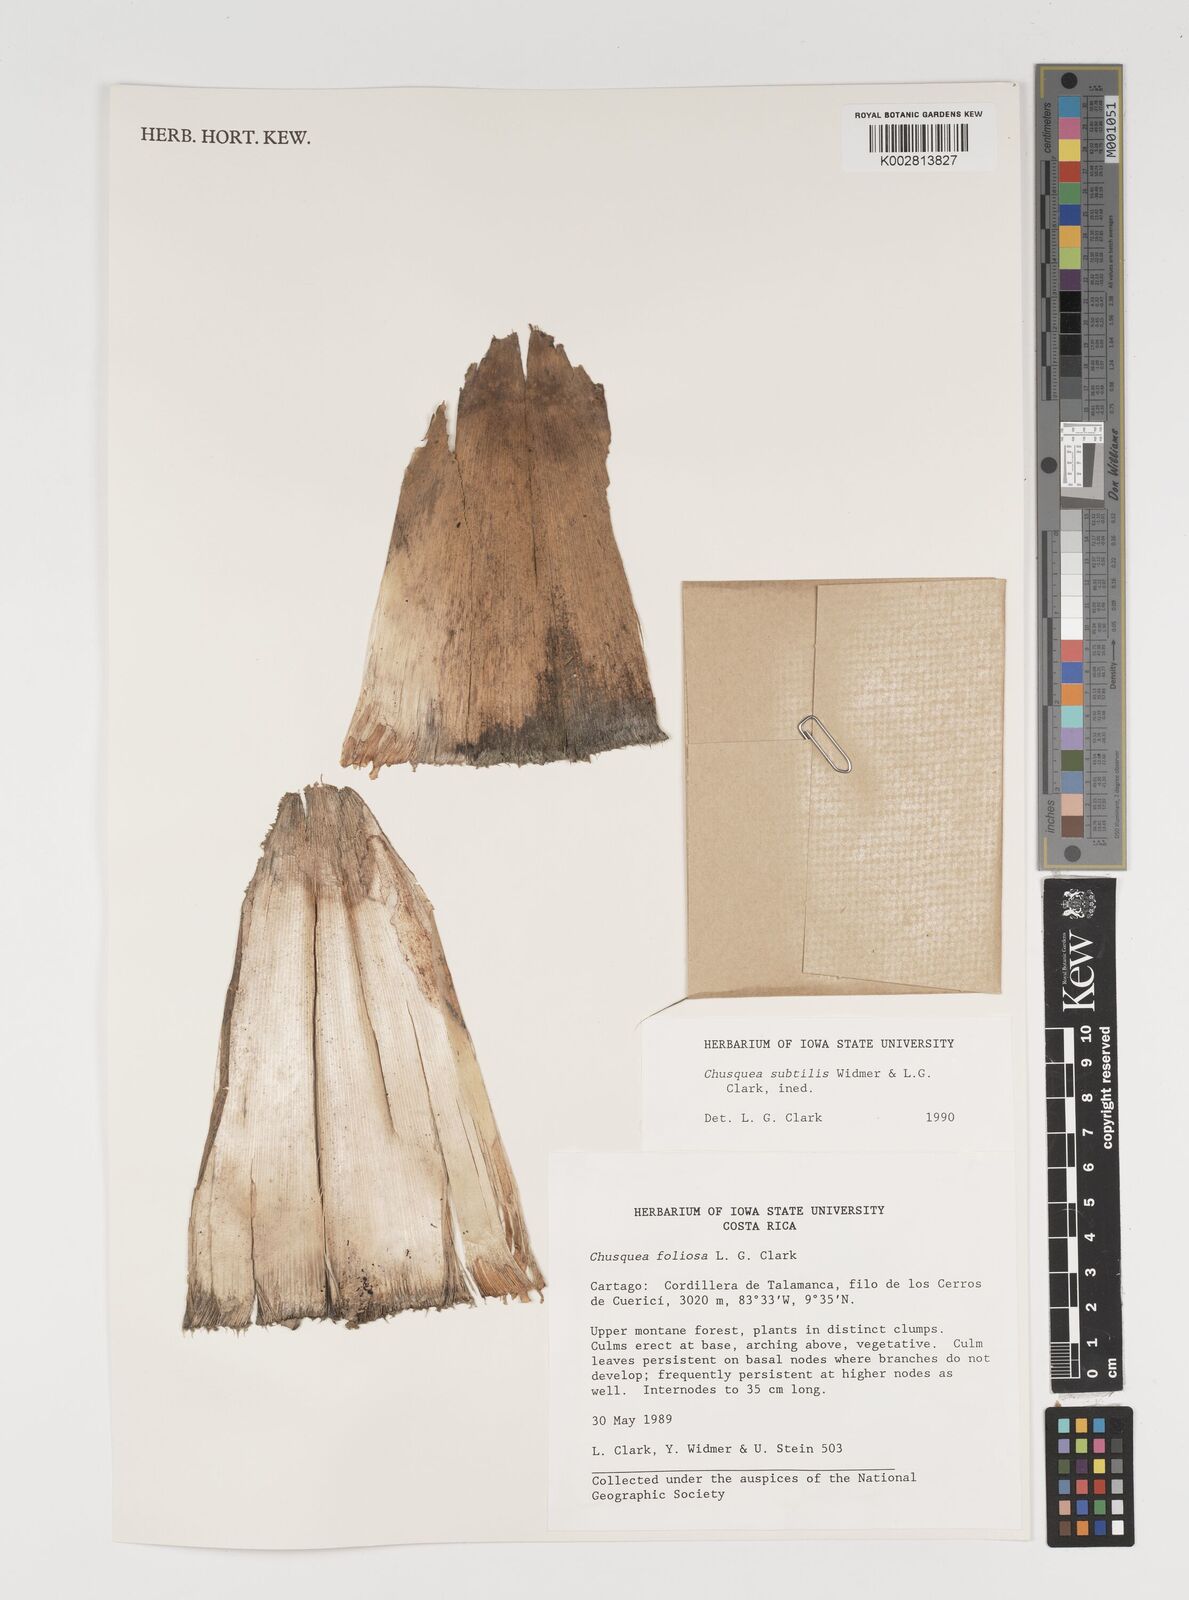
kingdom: Plantae
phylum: Tracheophyta
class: Liliopsida
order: Poales
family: Poaceae
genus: Chusquea
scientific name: Chusquea subtilis
